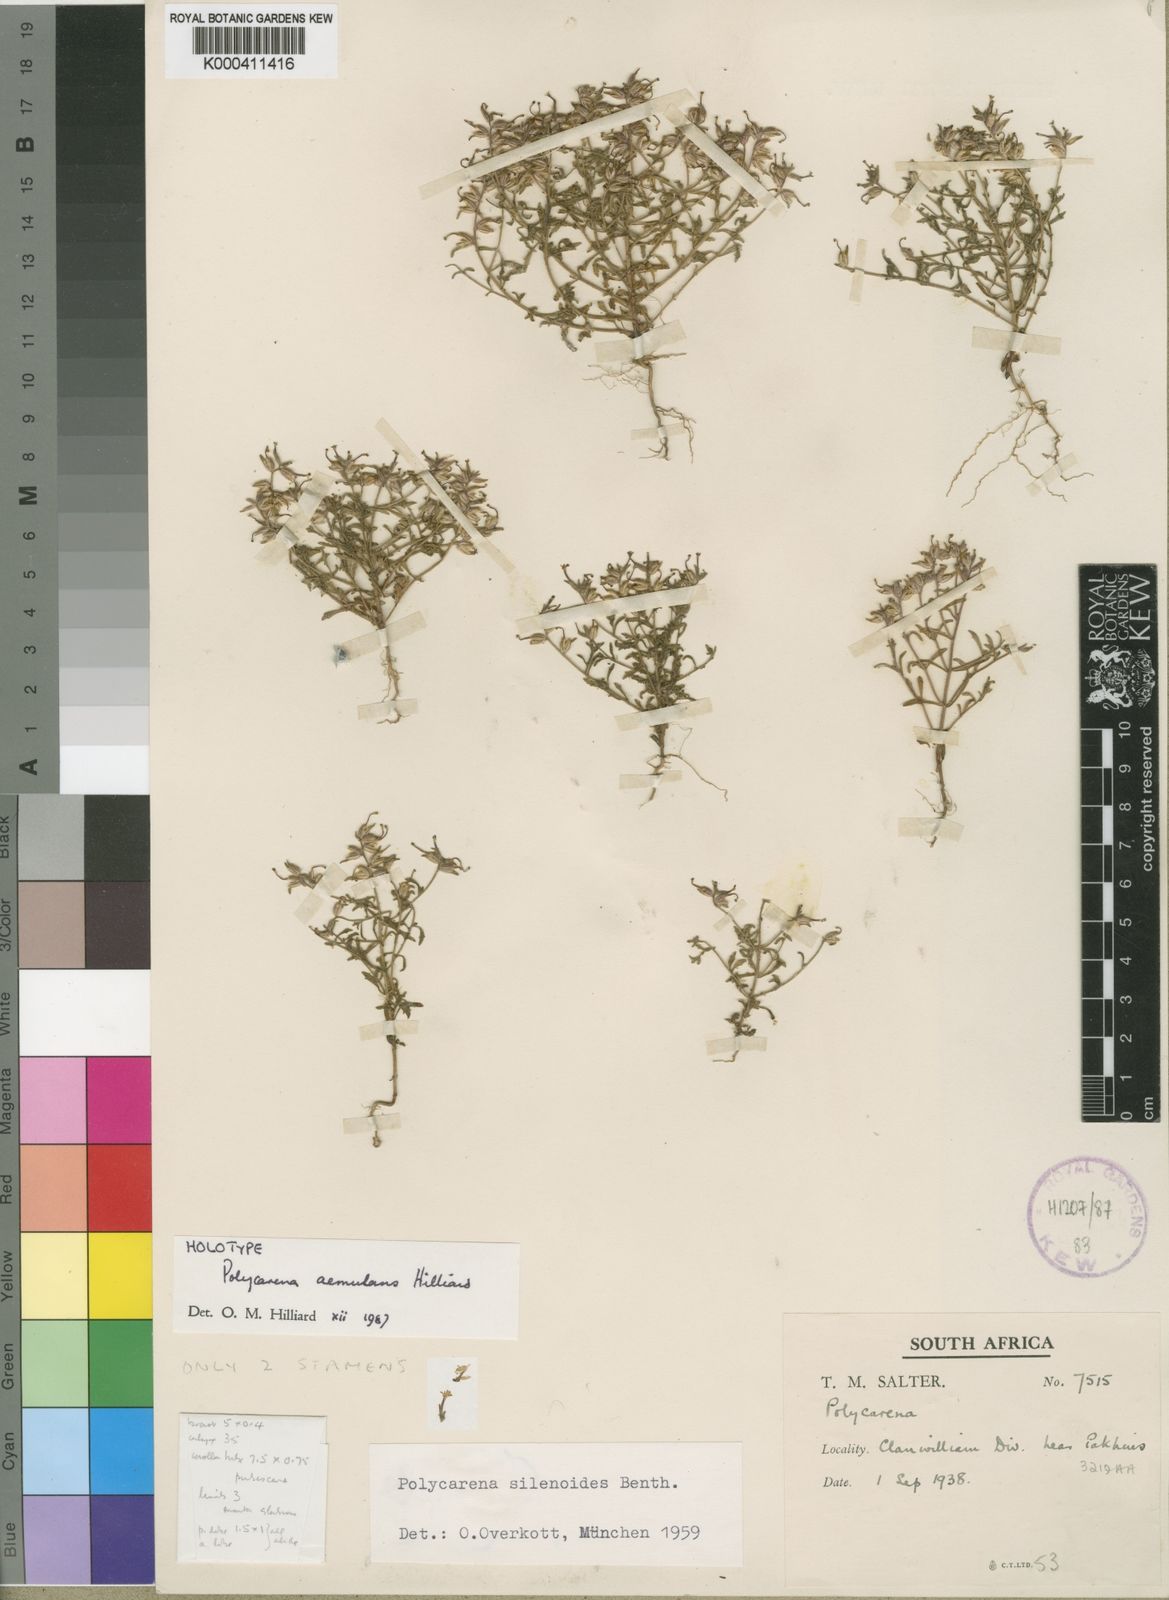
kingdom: Plantae
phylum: Tracheophyta
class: Magnoliopsida
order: Lamiales
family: Scrophulariaceae
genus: Polycarena
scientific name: Polycarena aemulans
